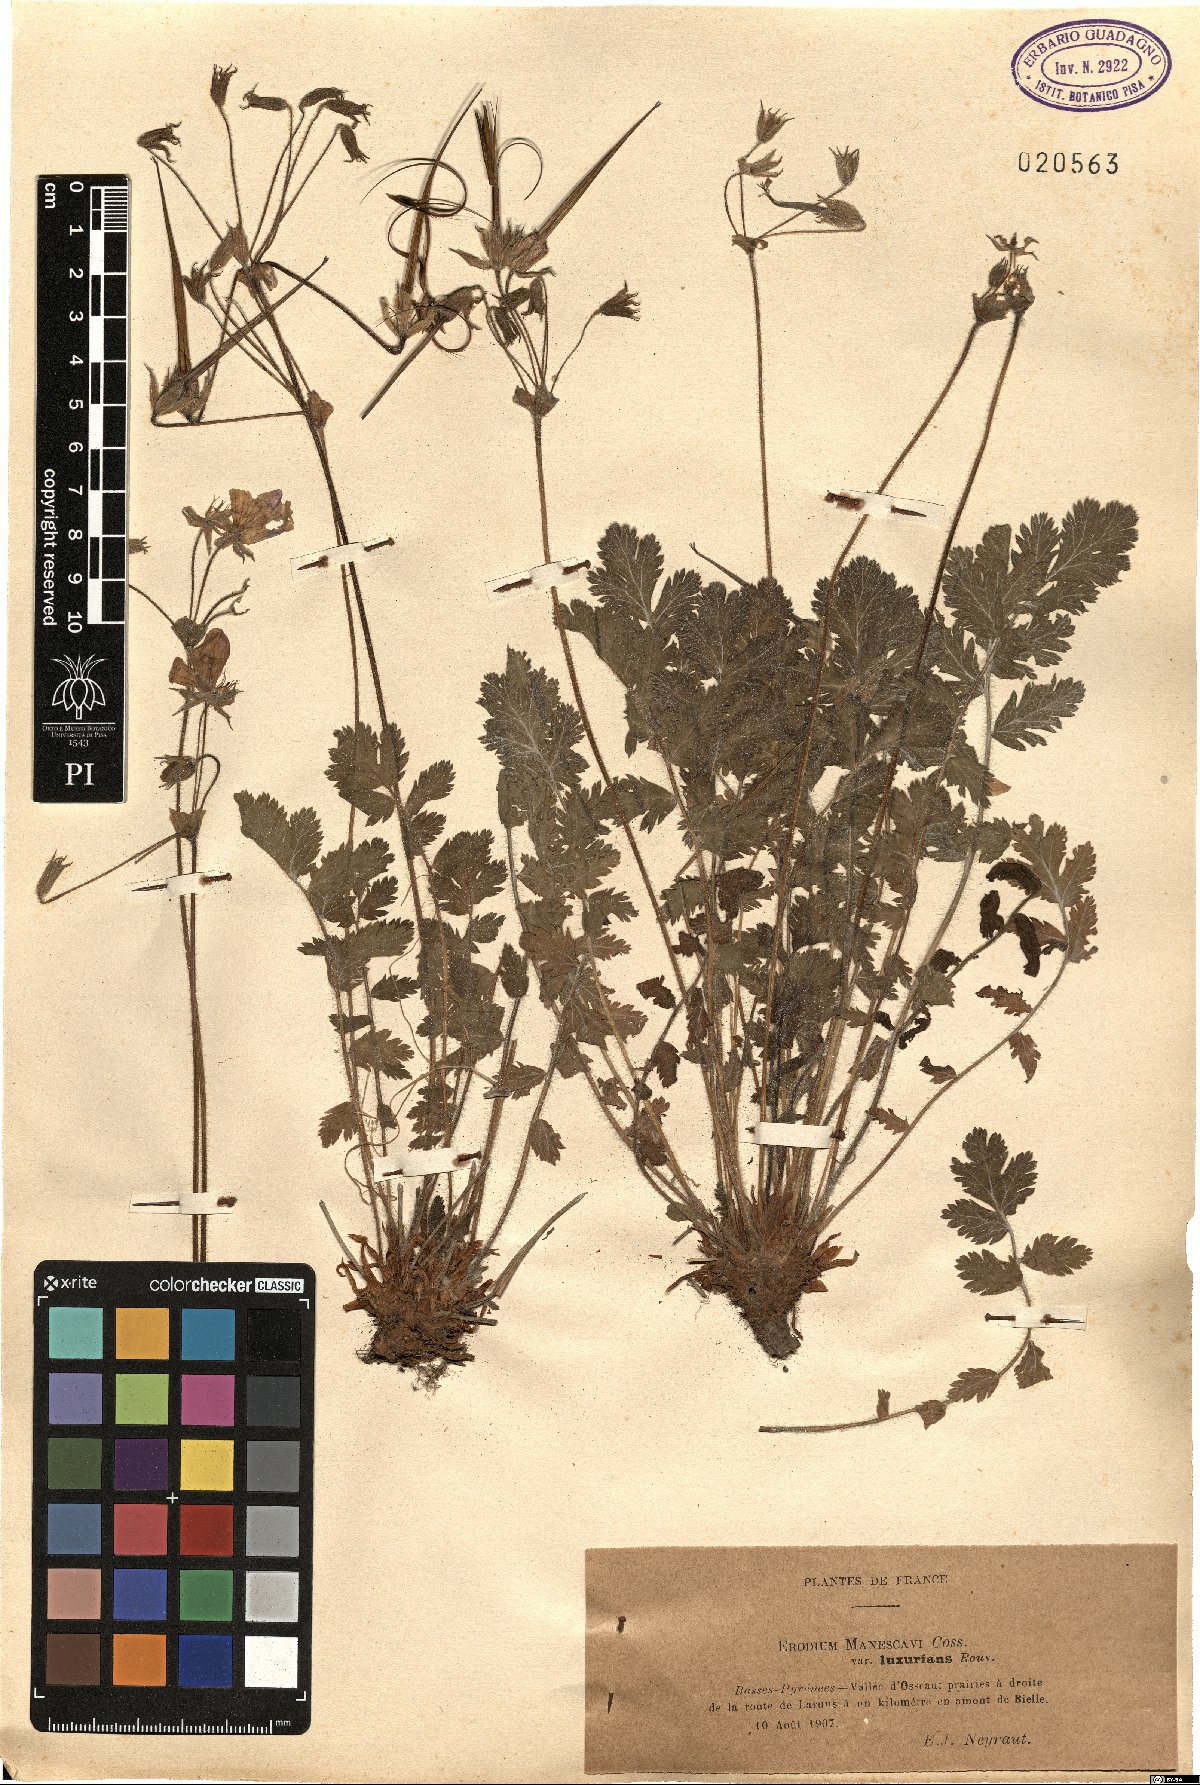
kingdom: Plantae
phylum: Tracheophyta
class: Magnoliopsida
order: Geraniales
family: Geraniaceae
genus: Erodium
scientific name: Erodium manescavi
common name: Garden stork's-bill
